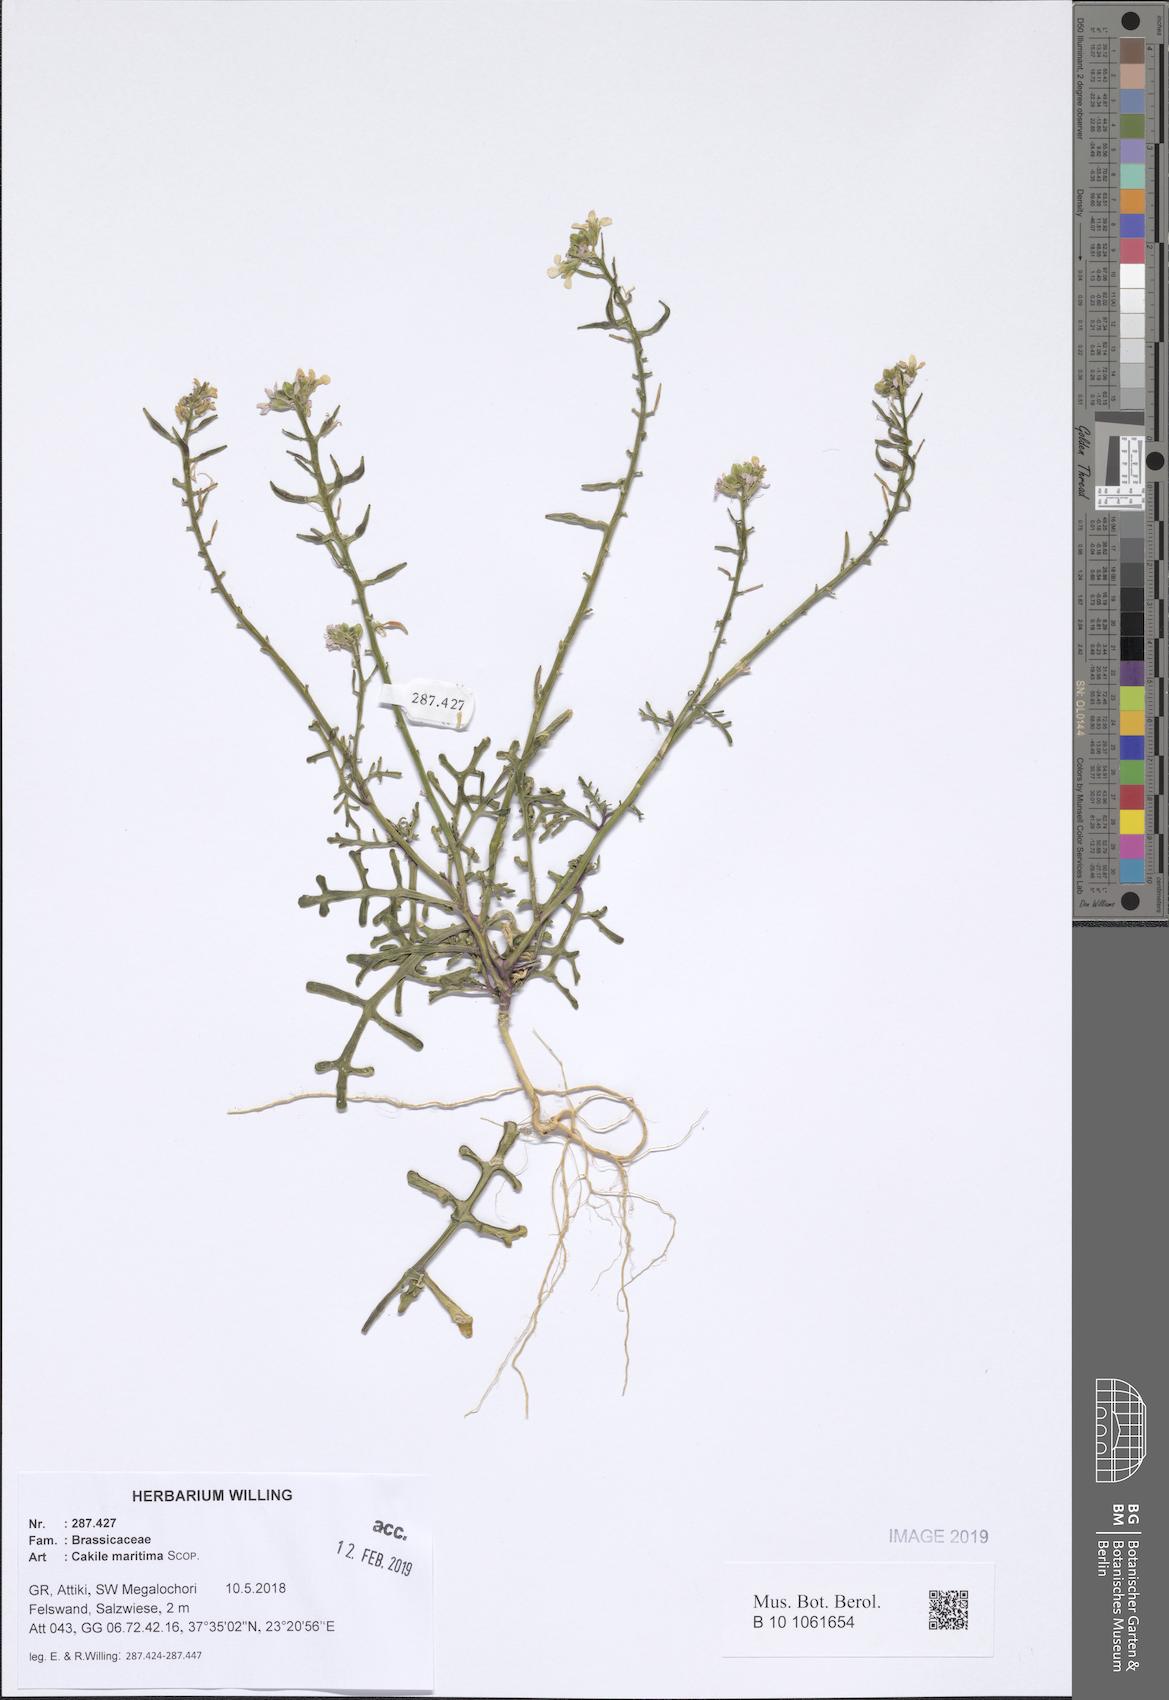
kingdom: Plantae
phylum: Tracheophyta
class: Magnoliopsida
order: Brassicales
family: Brassicaceae
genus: Cakile
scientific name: Cakile maritima
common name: Sea rocket
